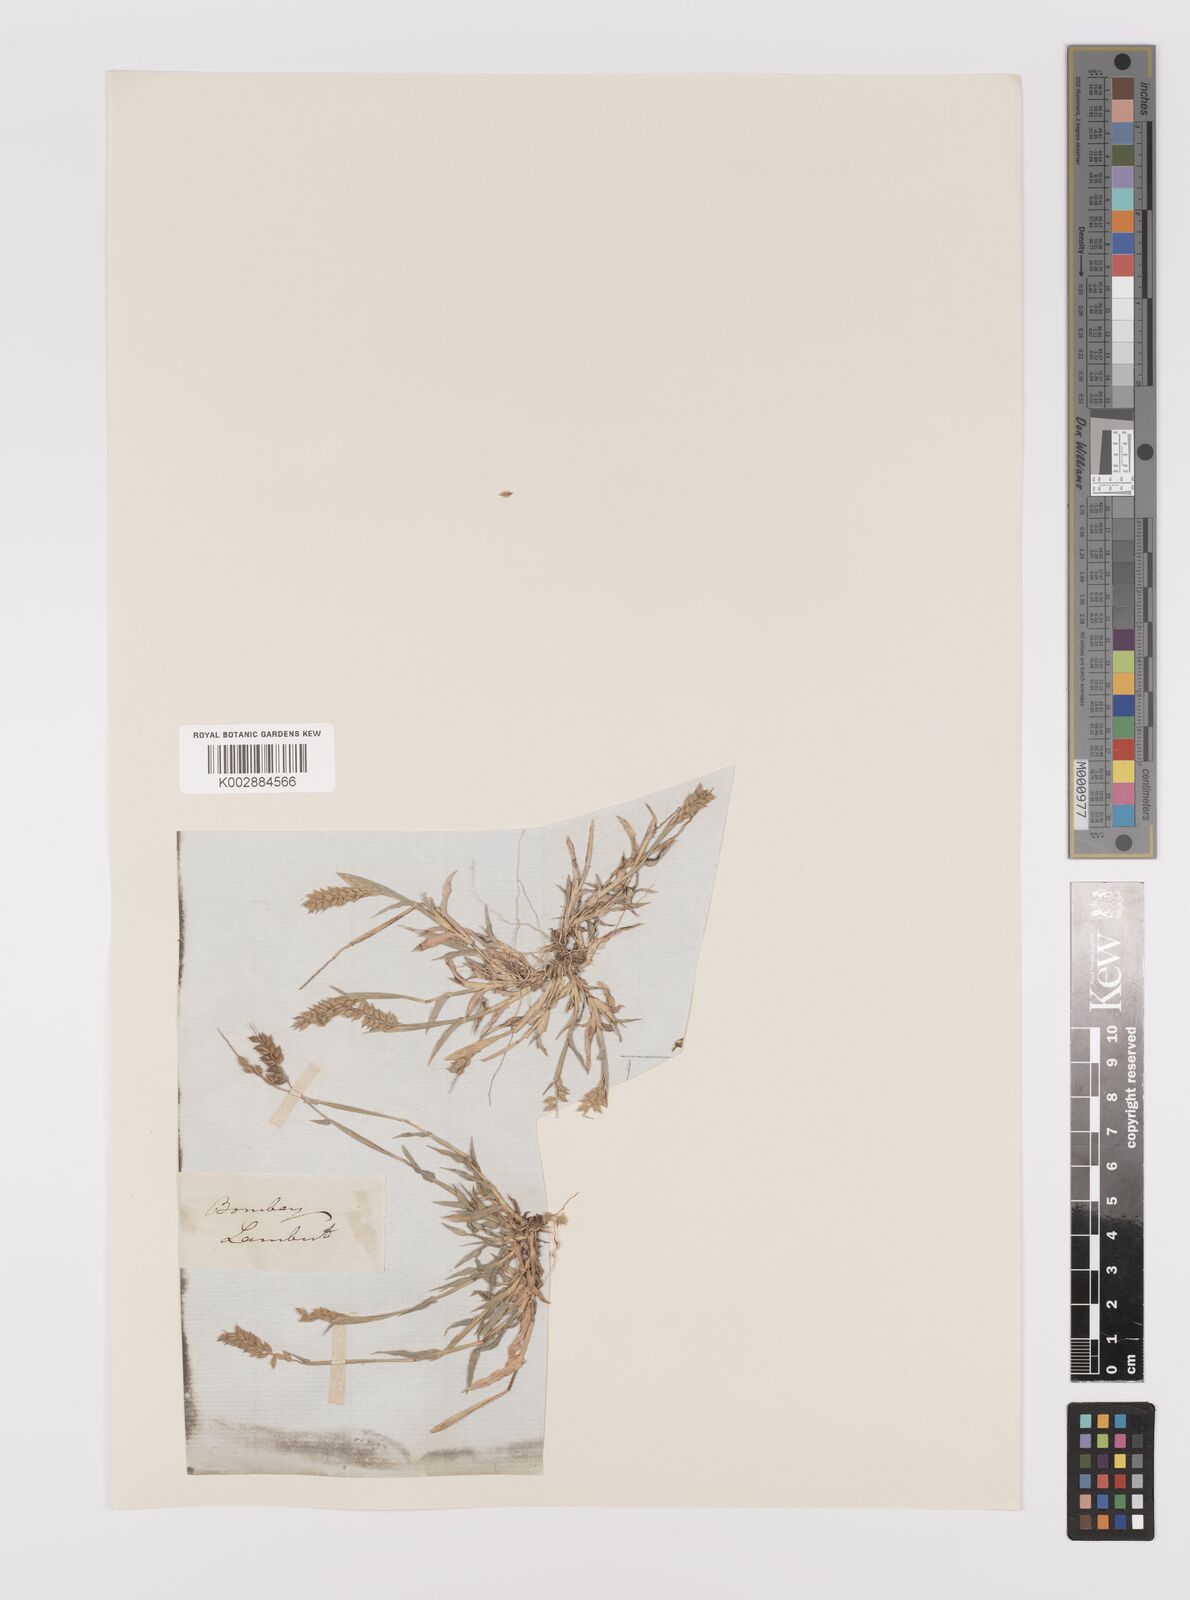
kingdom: Plantae
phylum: Tracheophyta
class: Liliopsida
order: Poales
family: Poaceae
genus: Tragus
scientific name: Tragus mongolorum
